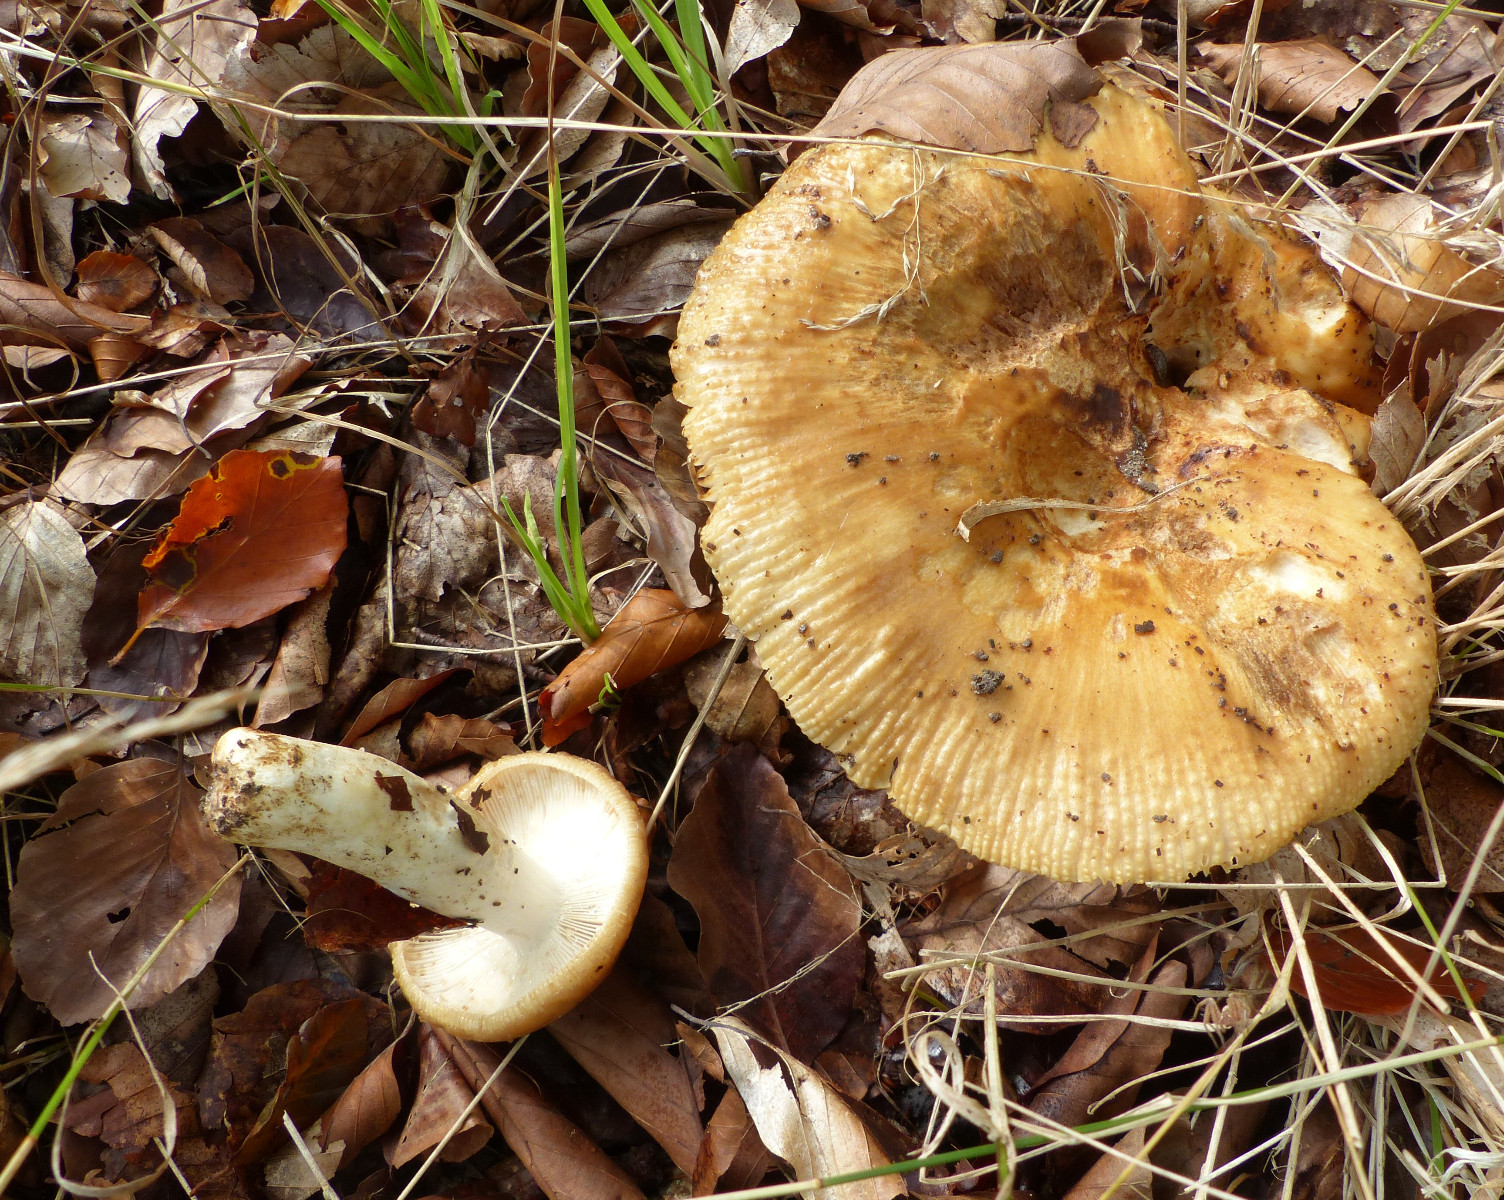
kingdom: Fungi
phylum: Basidiomycota
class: Agaricomycetes
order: Russulales
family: Russulaceae
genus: Russula
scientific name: Russula
